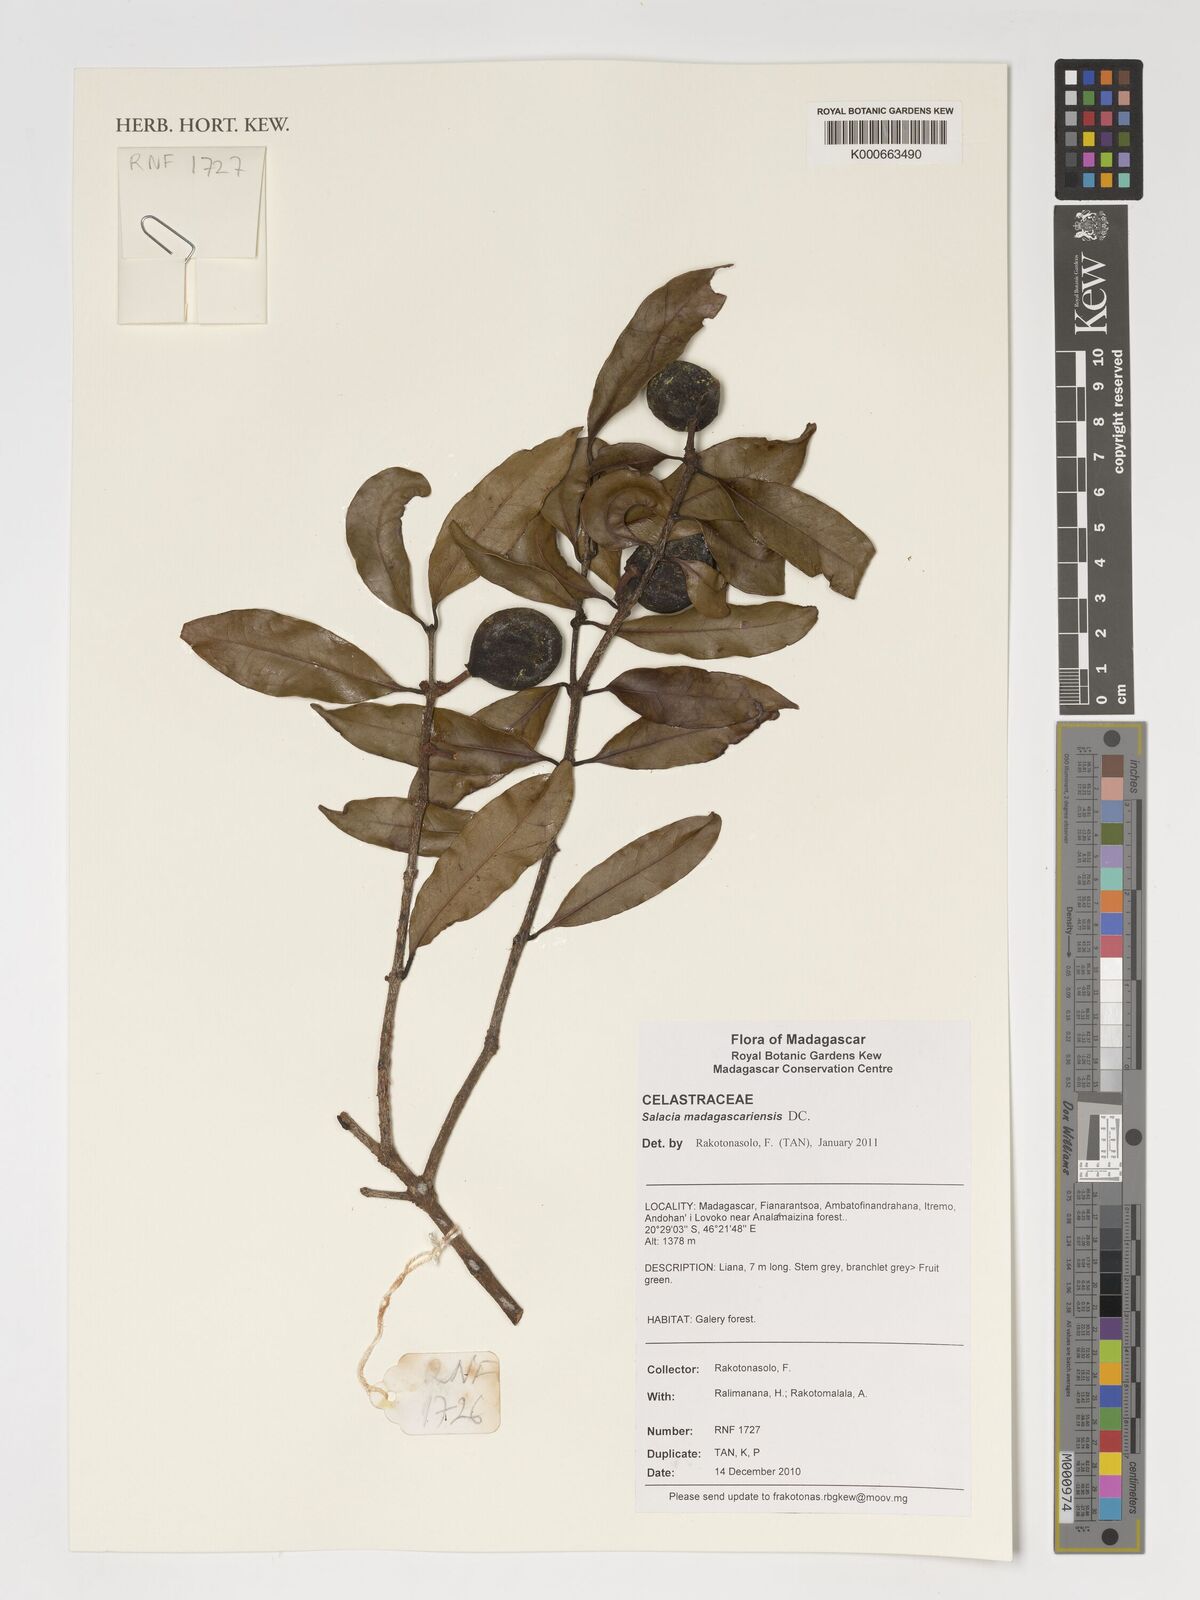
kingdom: Plantae
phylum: Tracheophyta
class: Magnoliopsida
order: Celastrales
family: Celastraceae
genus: Salacia
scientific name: Salacia madagascariensis
